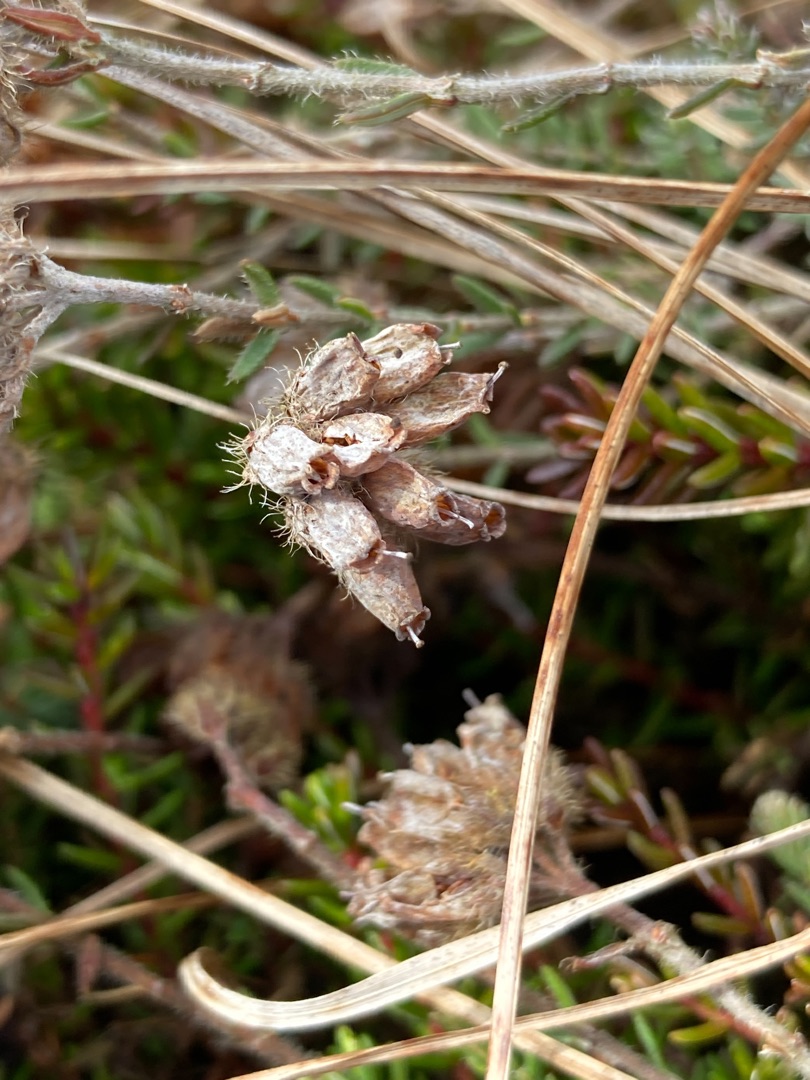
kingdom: Plantae
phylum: Tracheophyta
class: Magnoliopsida
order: Ericales
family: Ericaceae
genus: Erica
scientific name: Erica tetralix
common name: Klokkelyng
